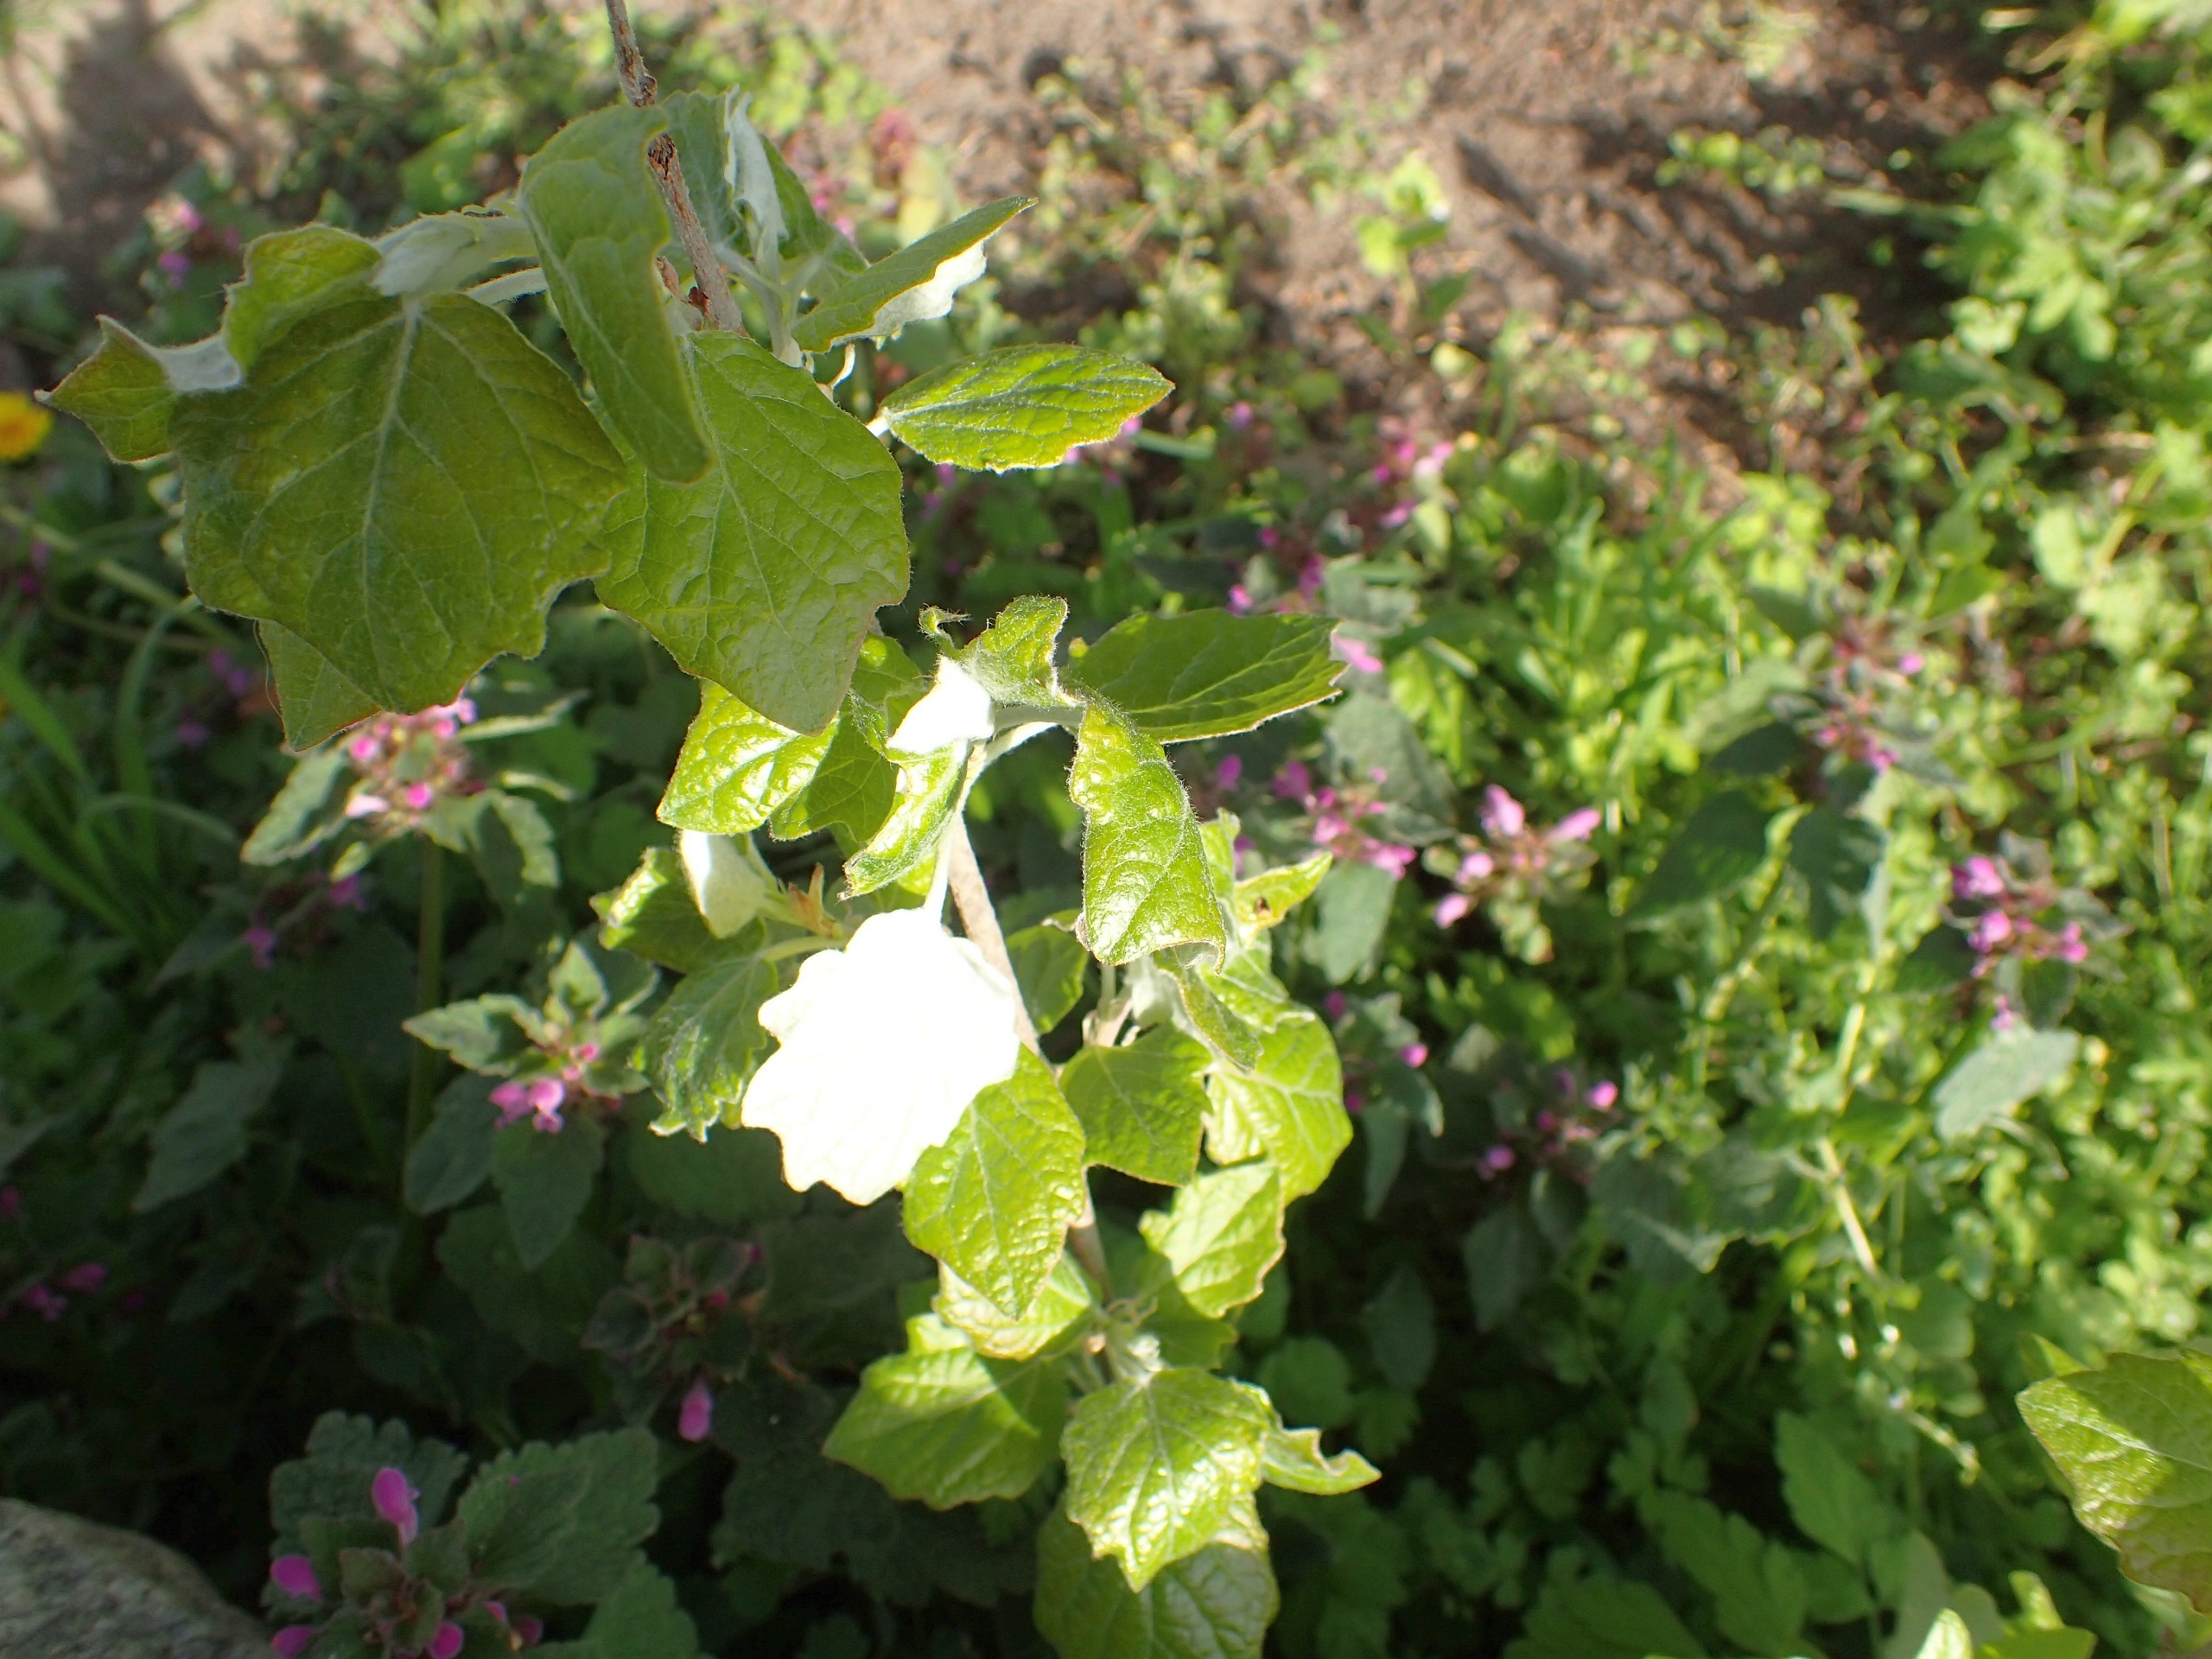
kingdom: Plantae
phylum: Tracheophyta
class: Magnoliopsida
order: Malpighiales
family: Salicaceae
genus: Populus
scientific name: Populus canescens
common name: Grå-poppel
